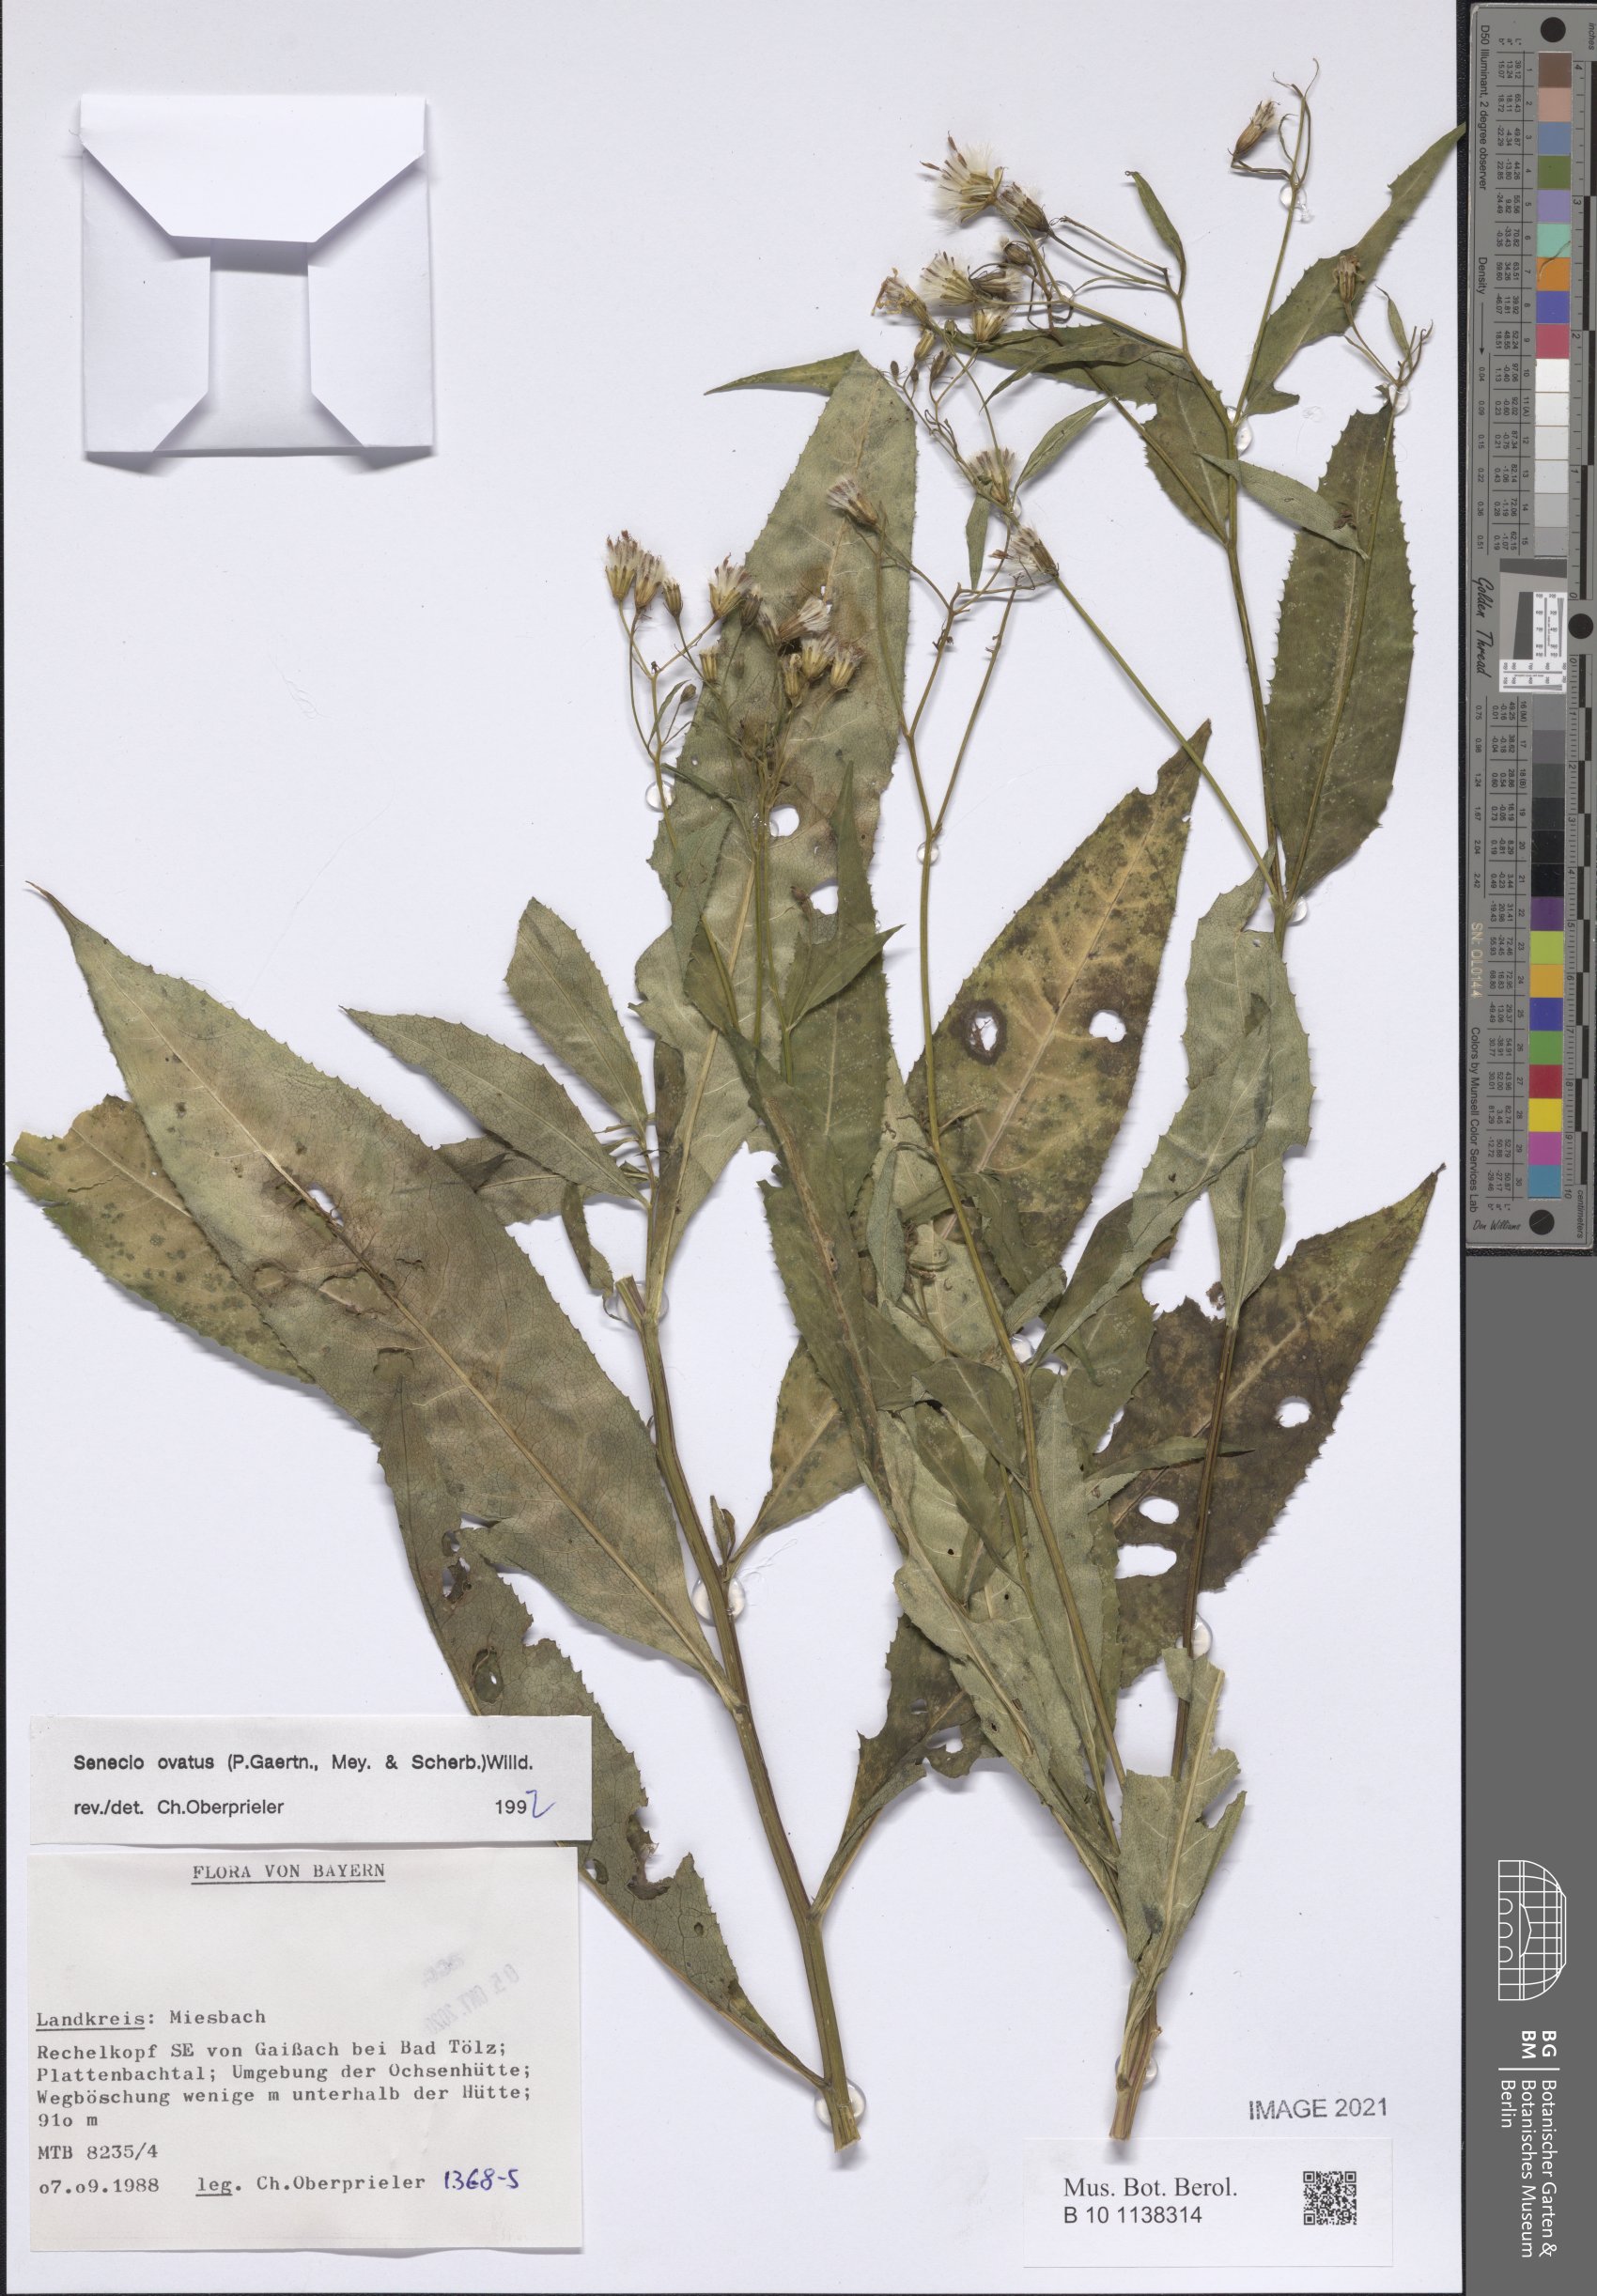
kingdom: Plantae
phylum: Tracheophyta
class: Magnoliopsida
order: Asterales
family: Asteraceae
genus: Senecio
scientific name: Senecio ovatus
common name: Wood ragwort
